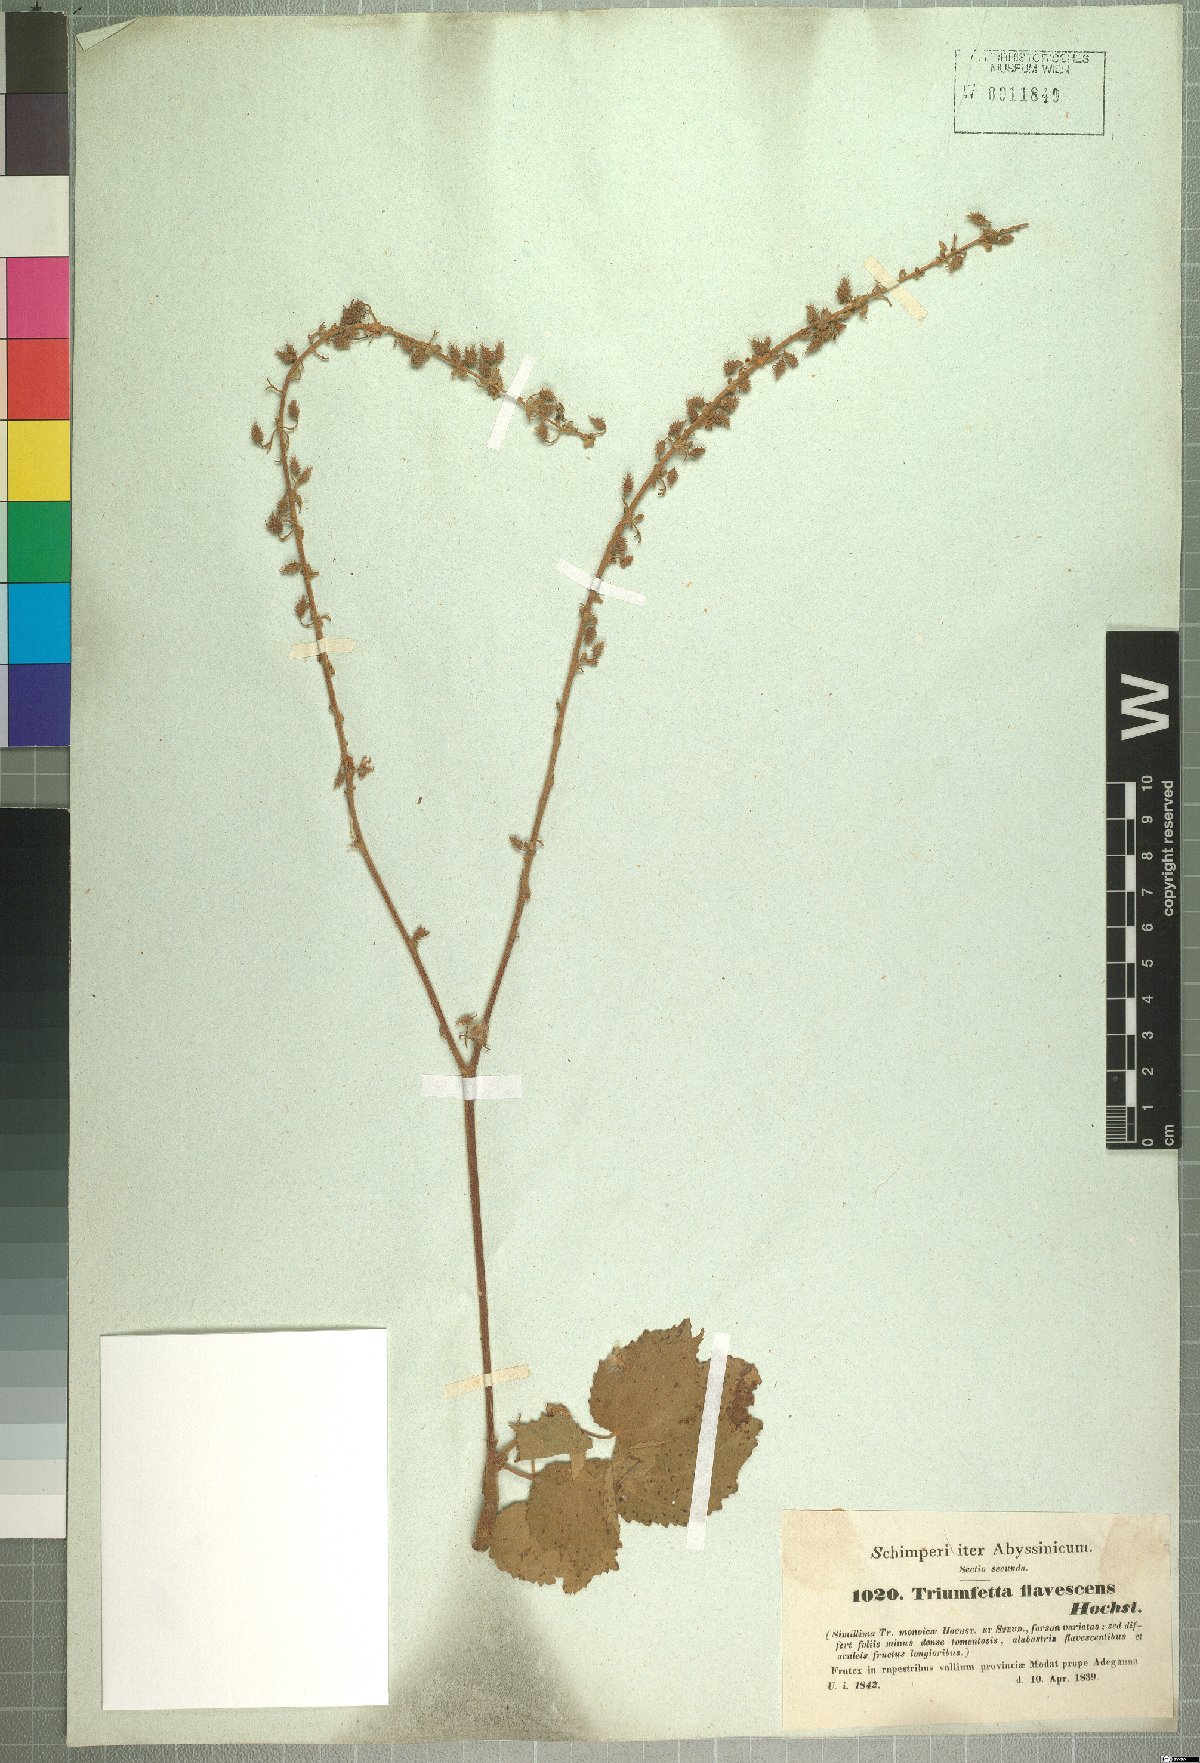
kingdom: Plantae
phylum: Tracheophyta
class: Magnoliopsida
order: Malvales
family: Malvaceae
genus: Triumfetta
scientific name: Triumfetta flavescens
